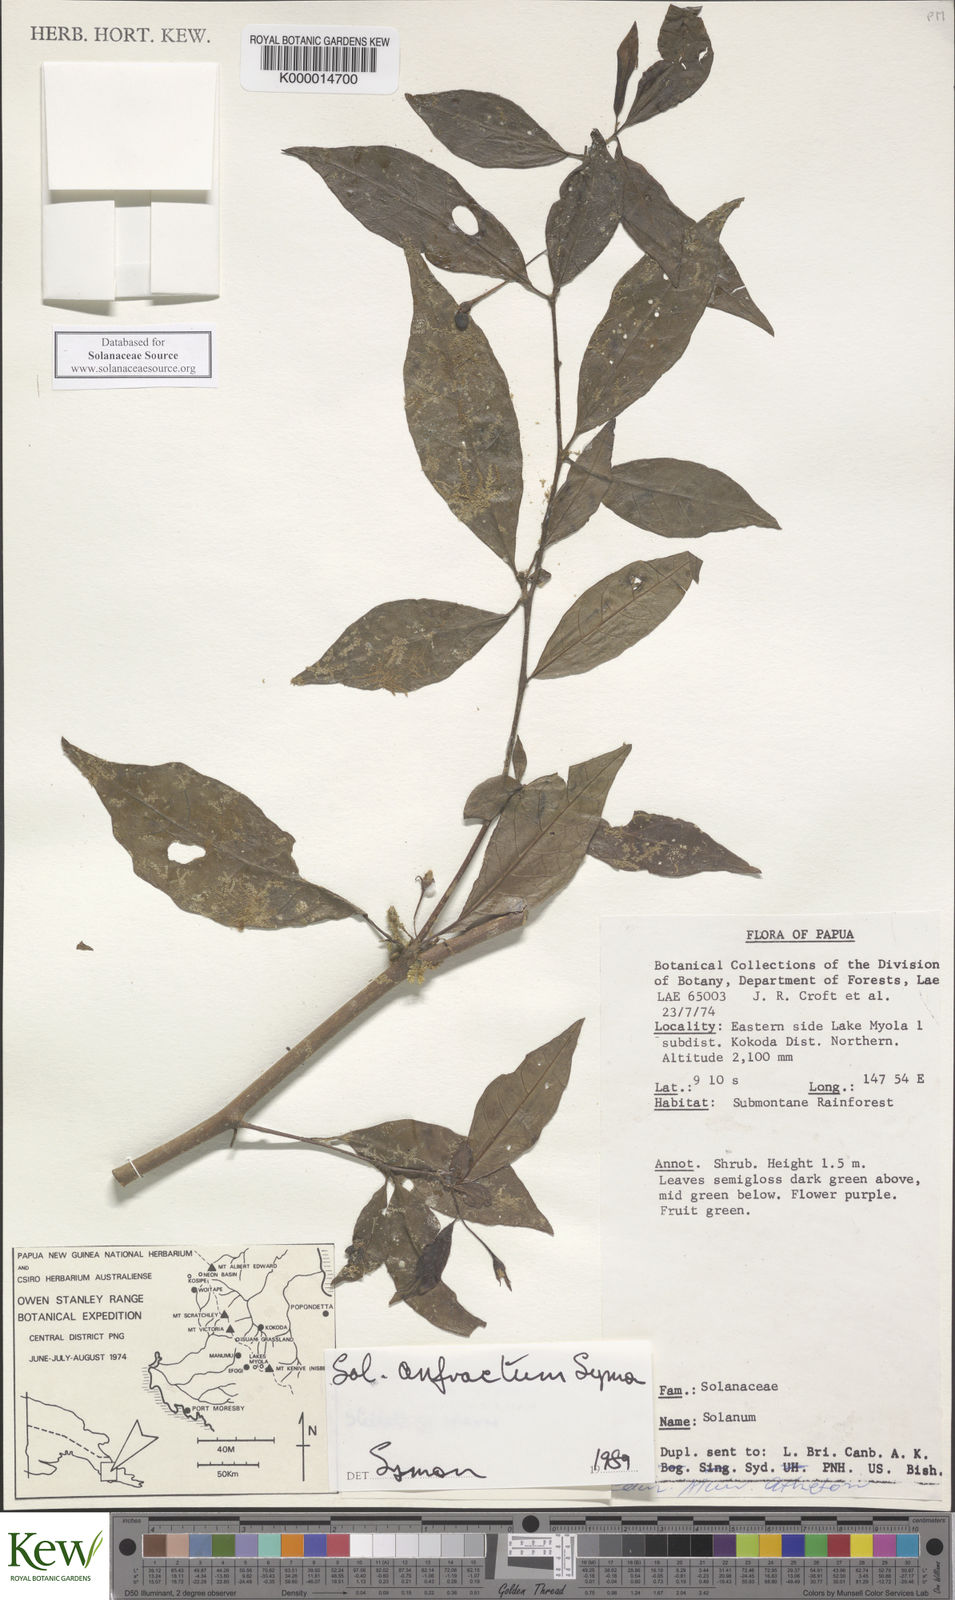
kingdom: Plantae
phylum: Tracheophyta
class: Magnoliopsida
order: Solanales
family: Solanaceae
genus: Solanum
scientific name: Solanum anfractum
